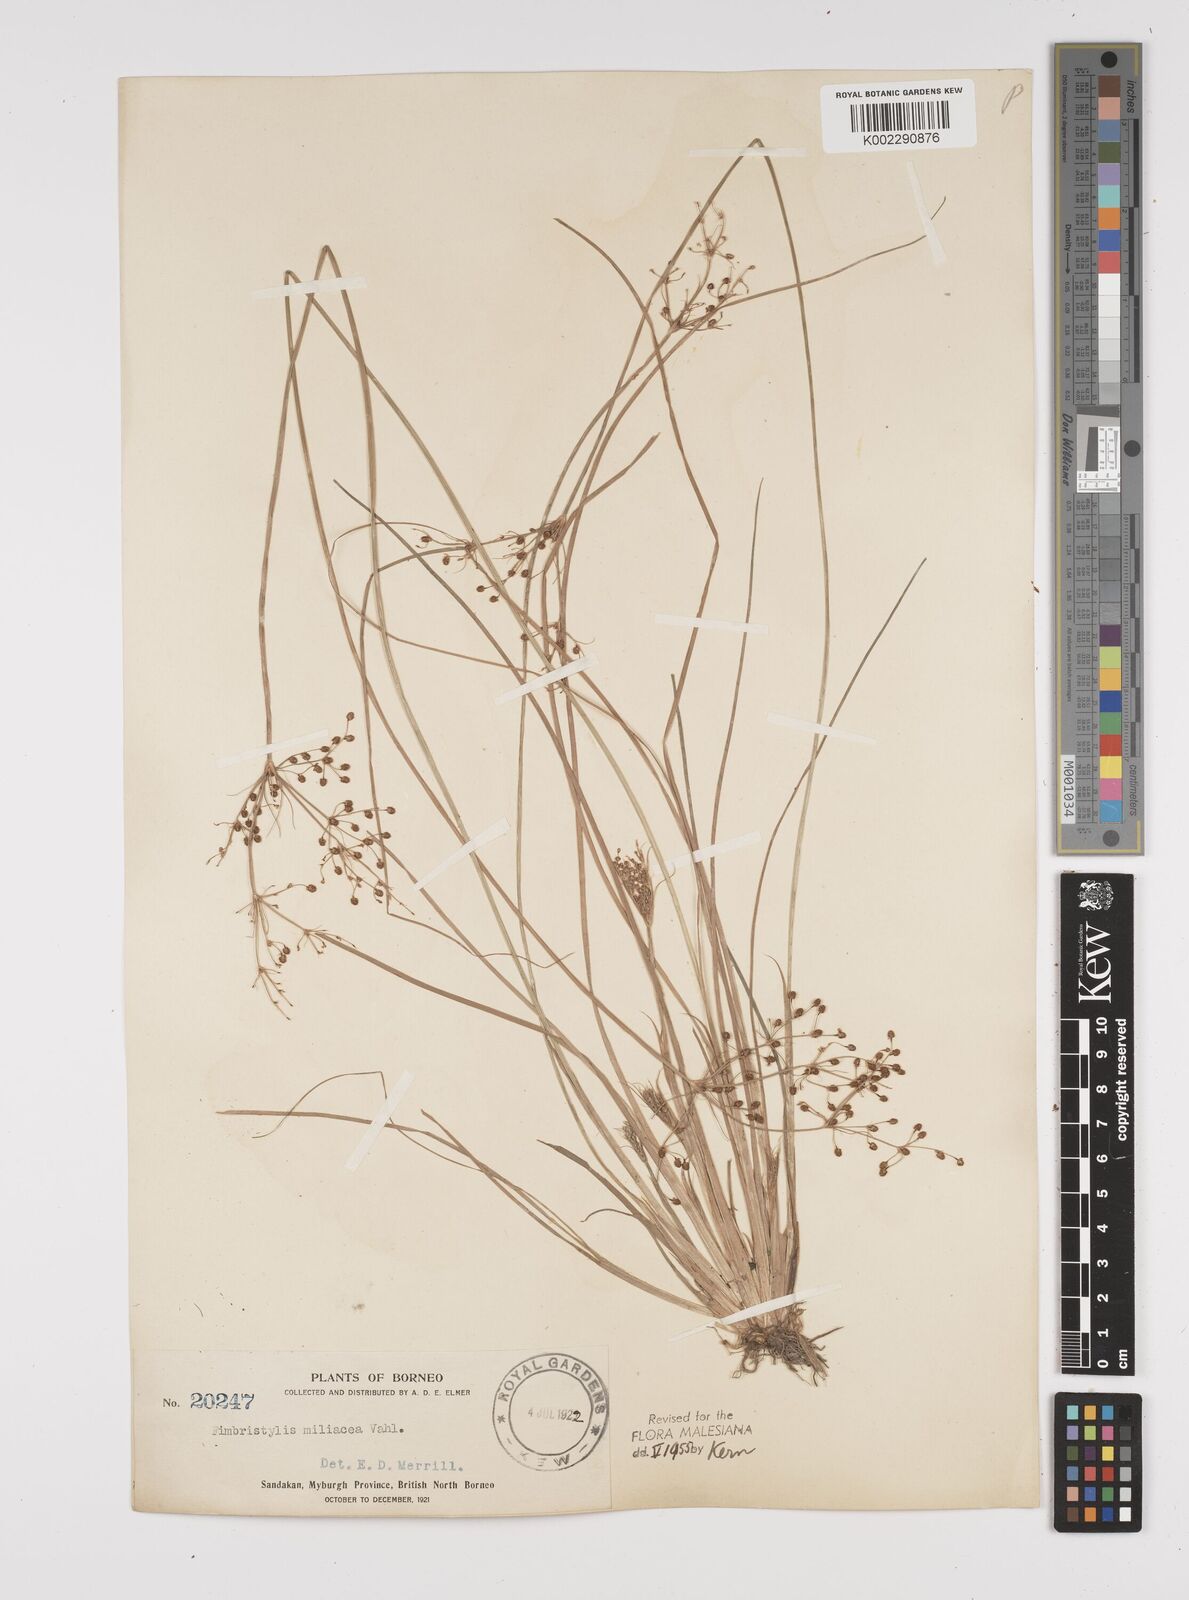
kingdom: Plantae
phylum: Tracheophyta
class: Liliopsida
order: Poales
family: Cyperaceae
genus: Fimbristylis
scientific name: Fimbristylis littoralis
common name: Fimbry
